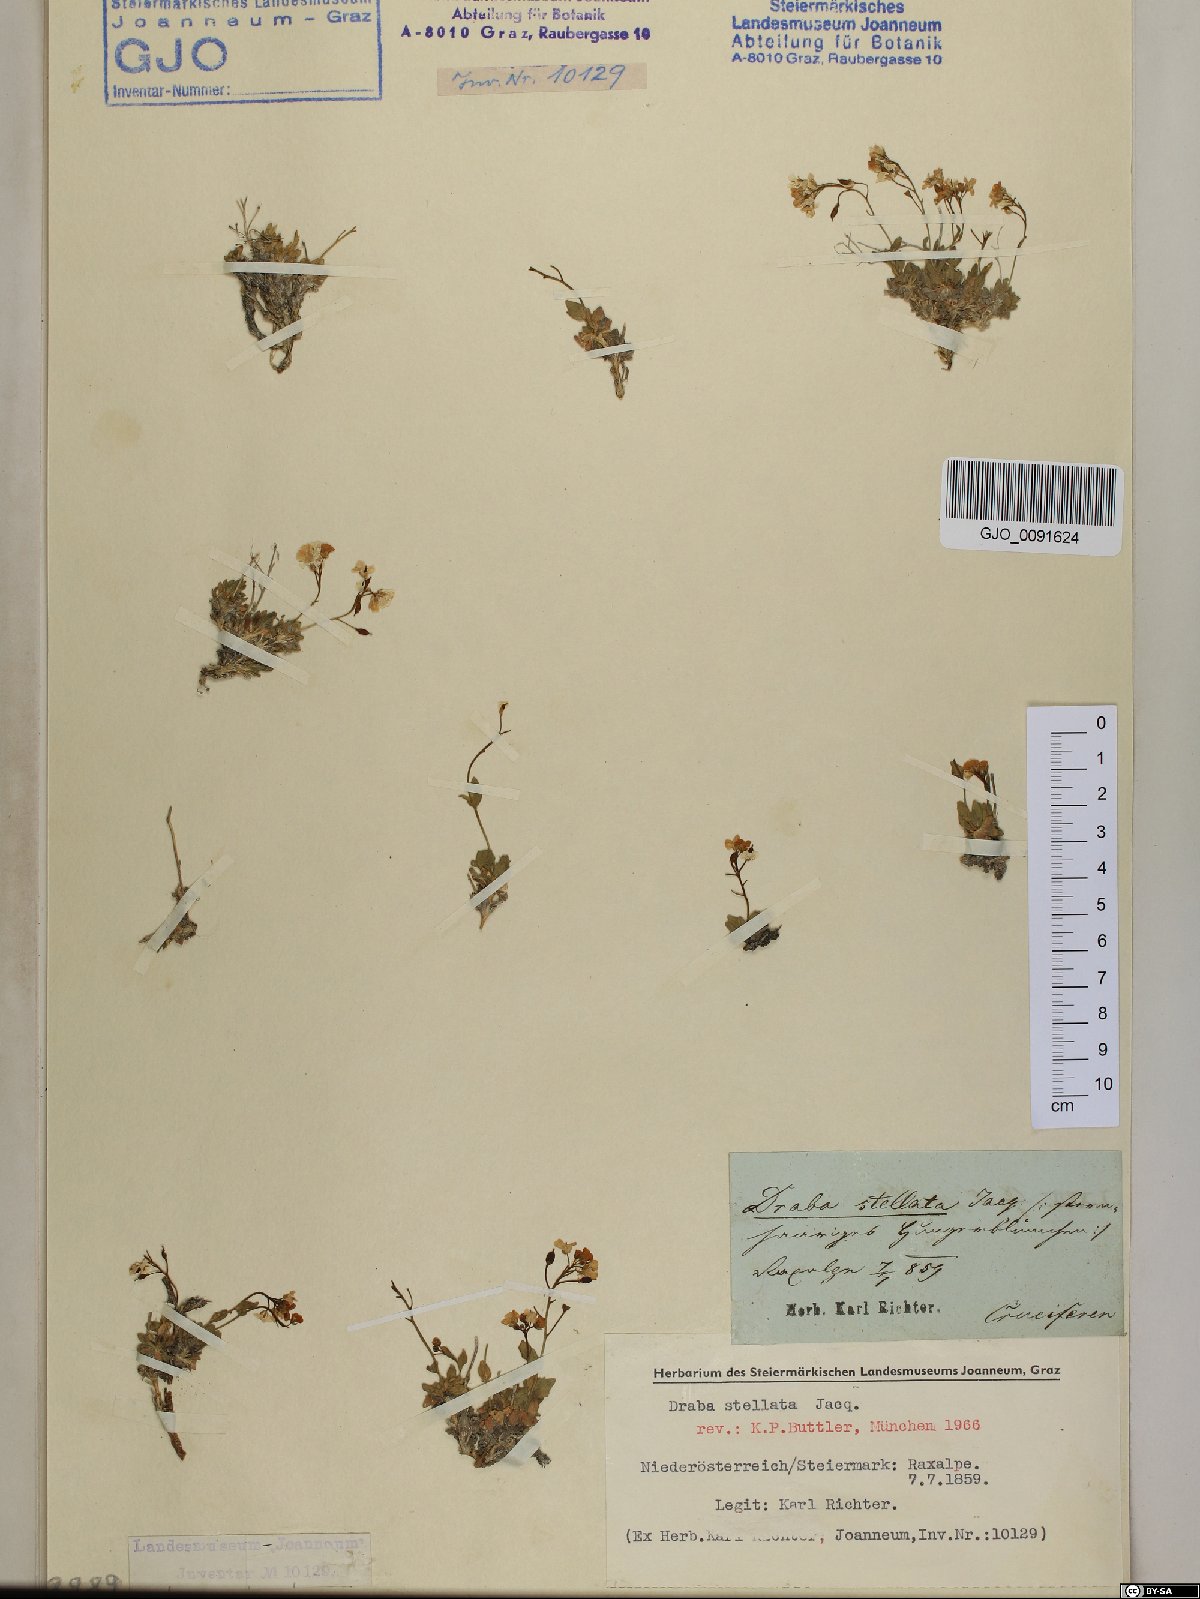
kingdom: Plantae
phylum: Tracheophyta
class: Magnoliopsida
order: Brassicales
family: Brassicaceae
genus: Draba
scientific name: Draba stellata
